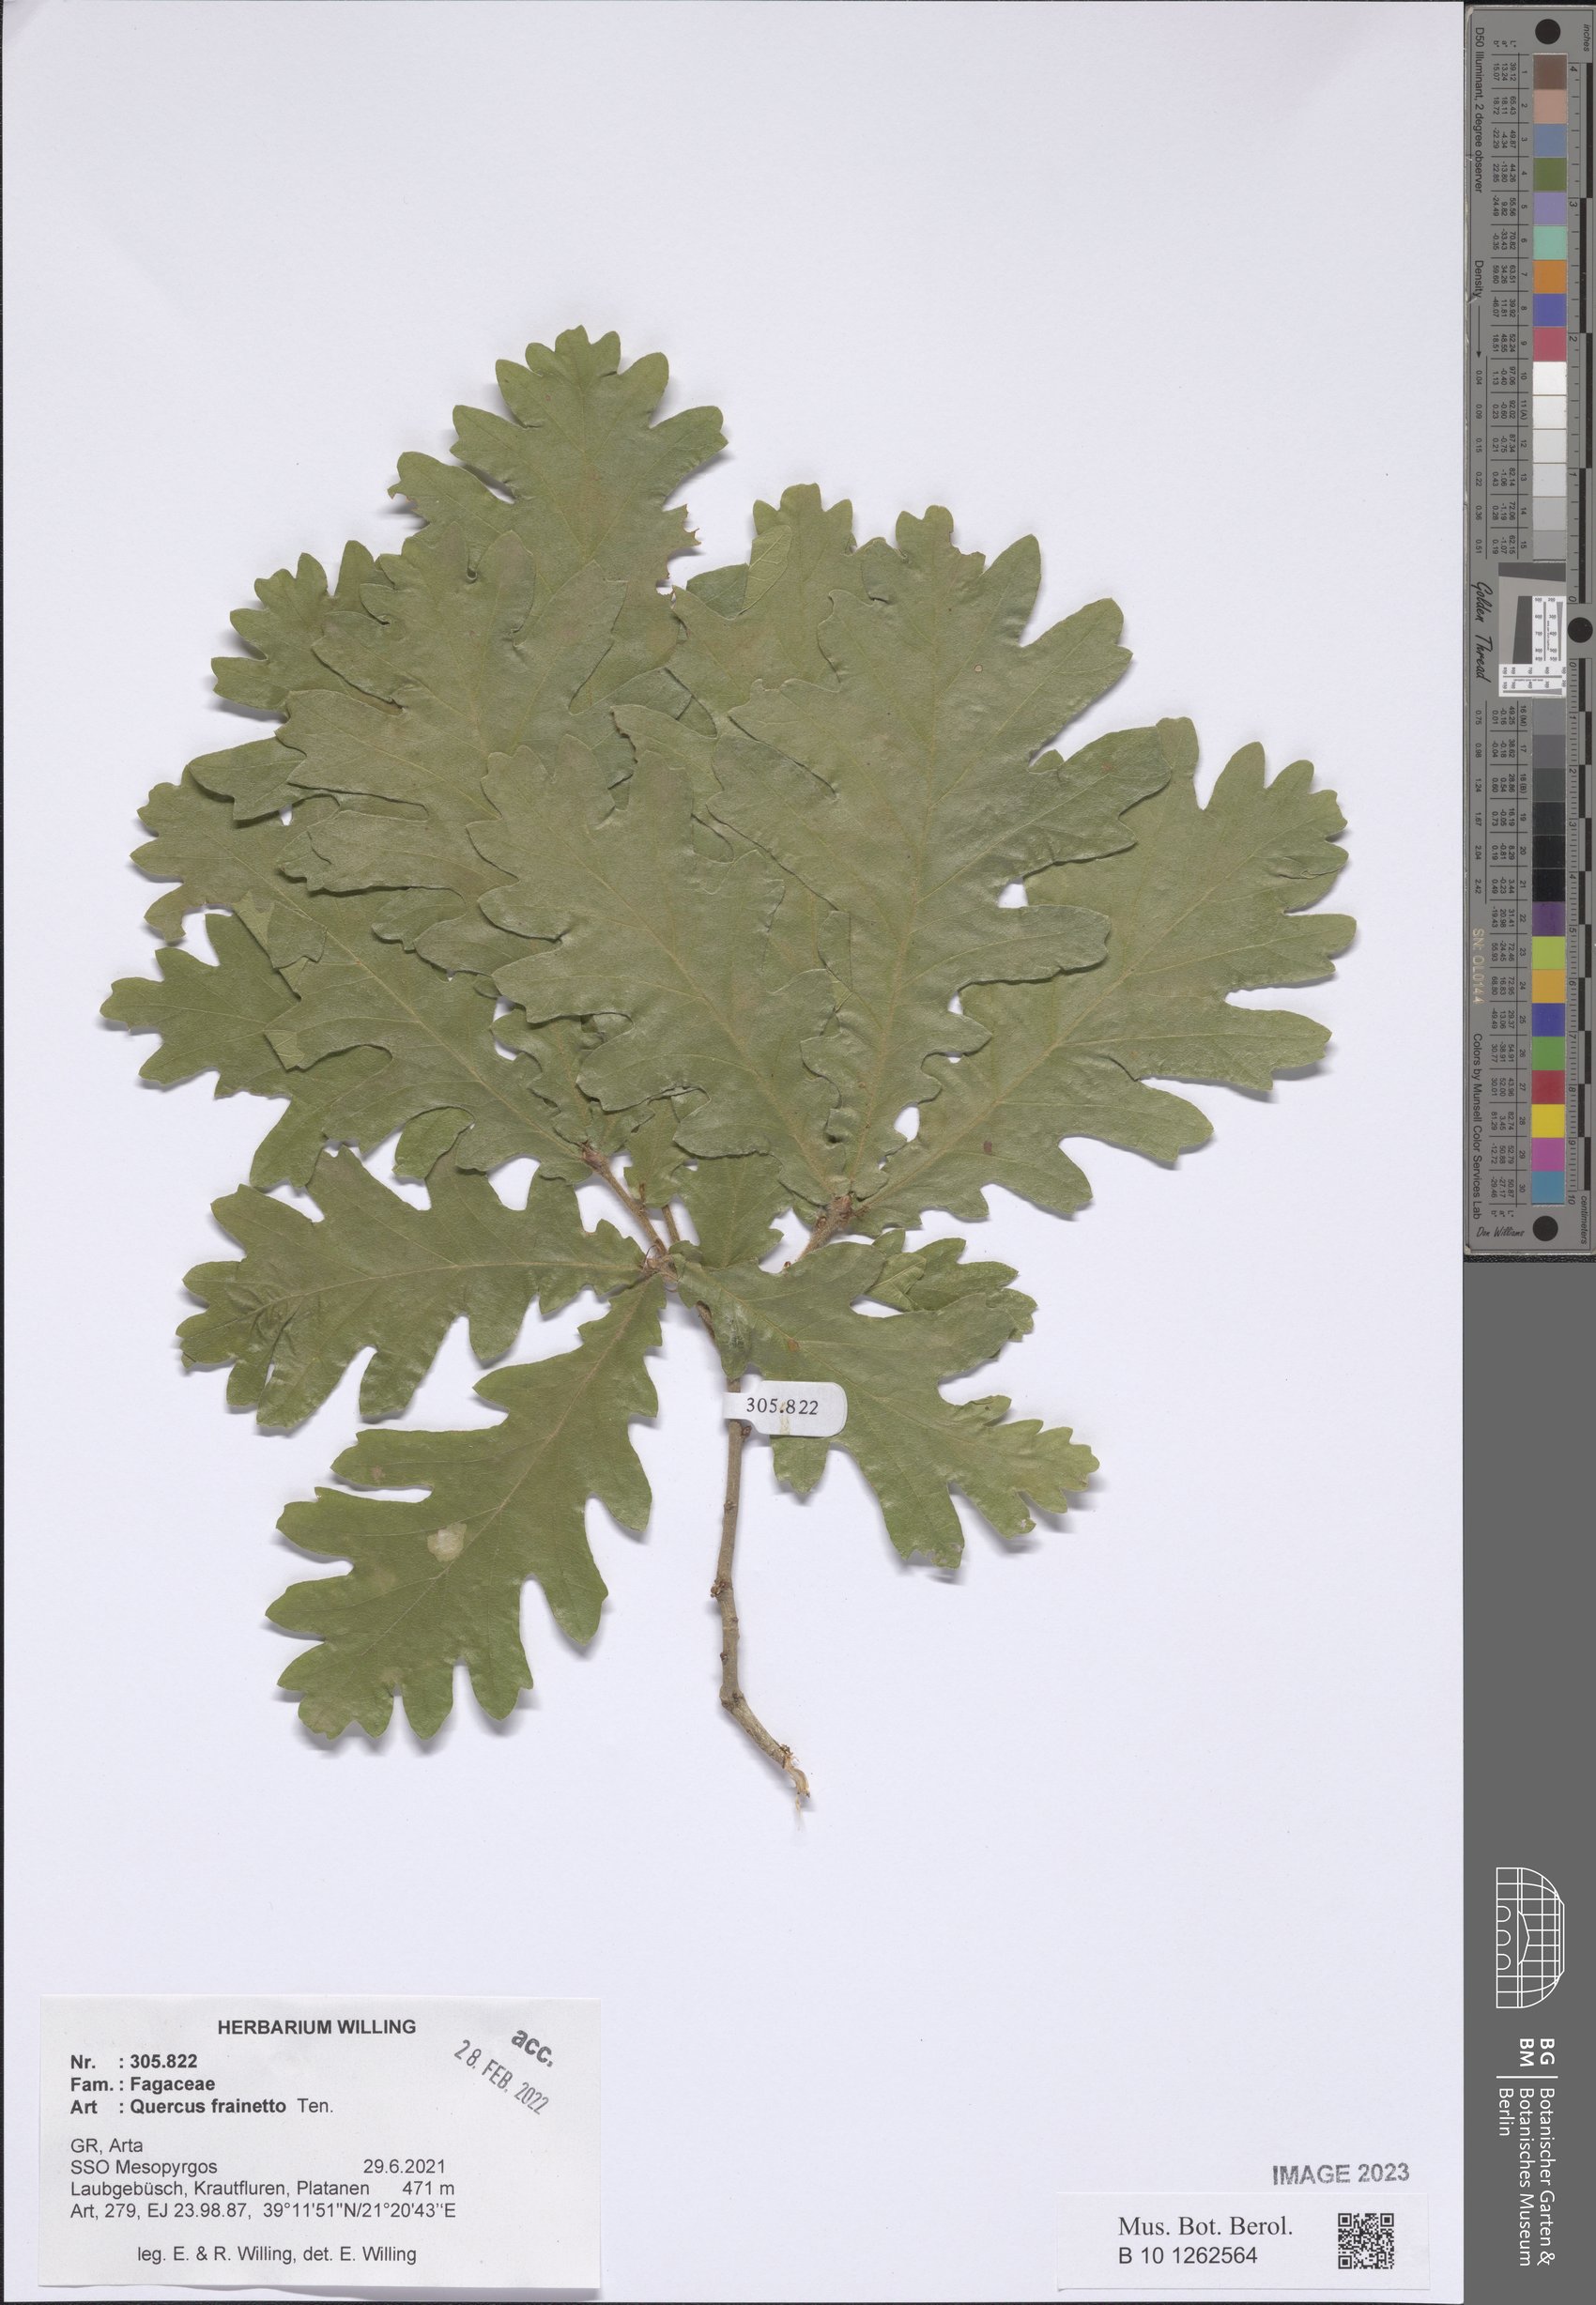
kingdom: Plantae
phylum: Tracheophyta
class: Magnoliopsida
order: Fagales
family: Fagaceae
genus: Quercus
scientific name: Quercus conferta
